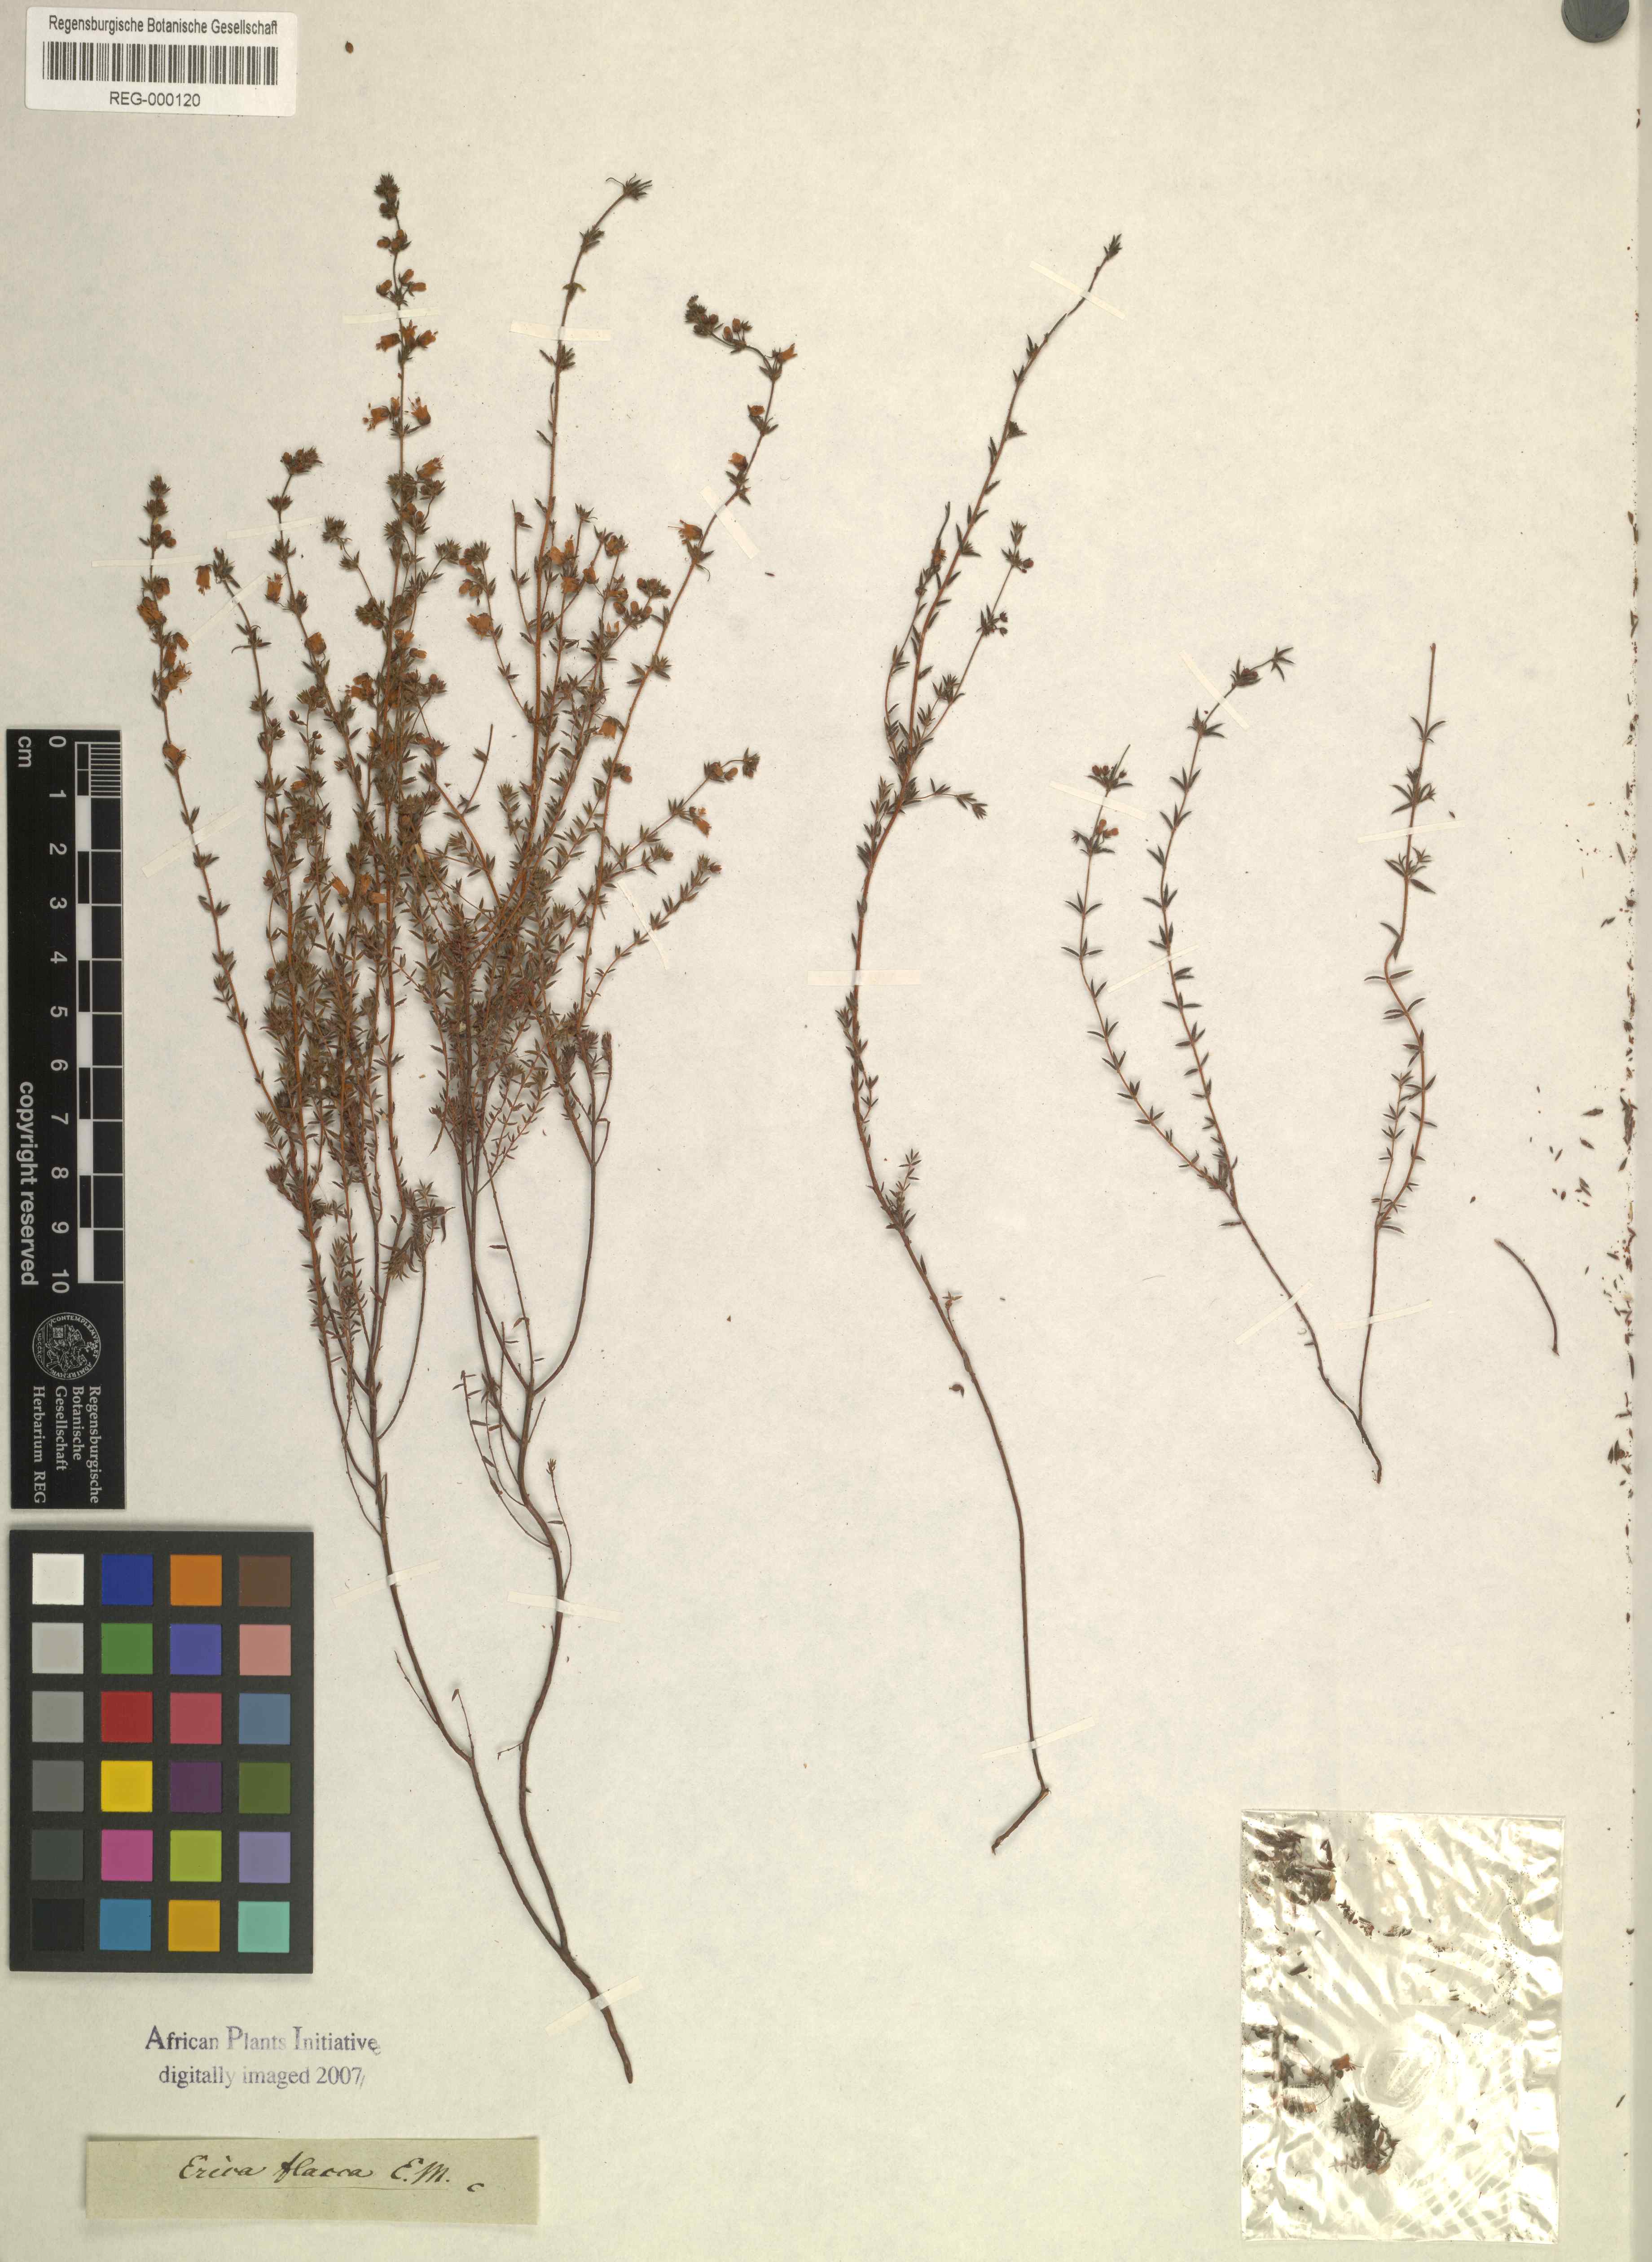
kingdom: Plantae
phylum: Tracheophyta
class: Magnoliopsida
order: Ericales
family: Ericaceae
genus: Erica
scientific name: Erica flacca
